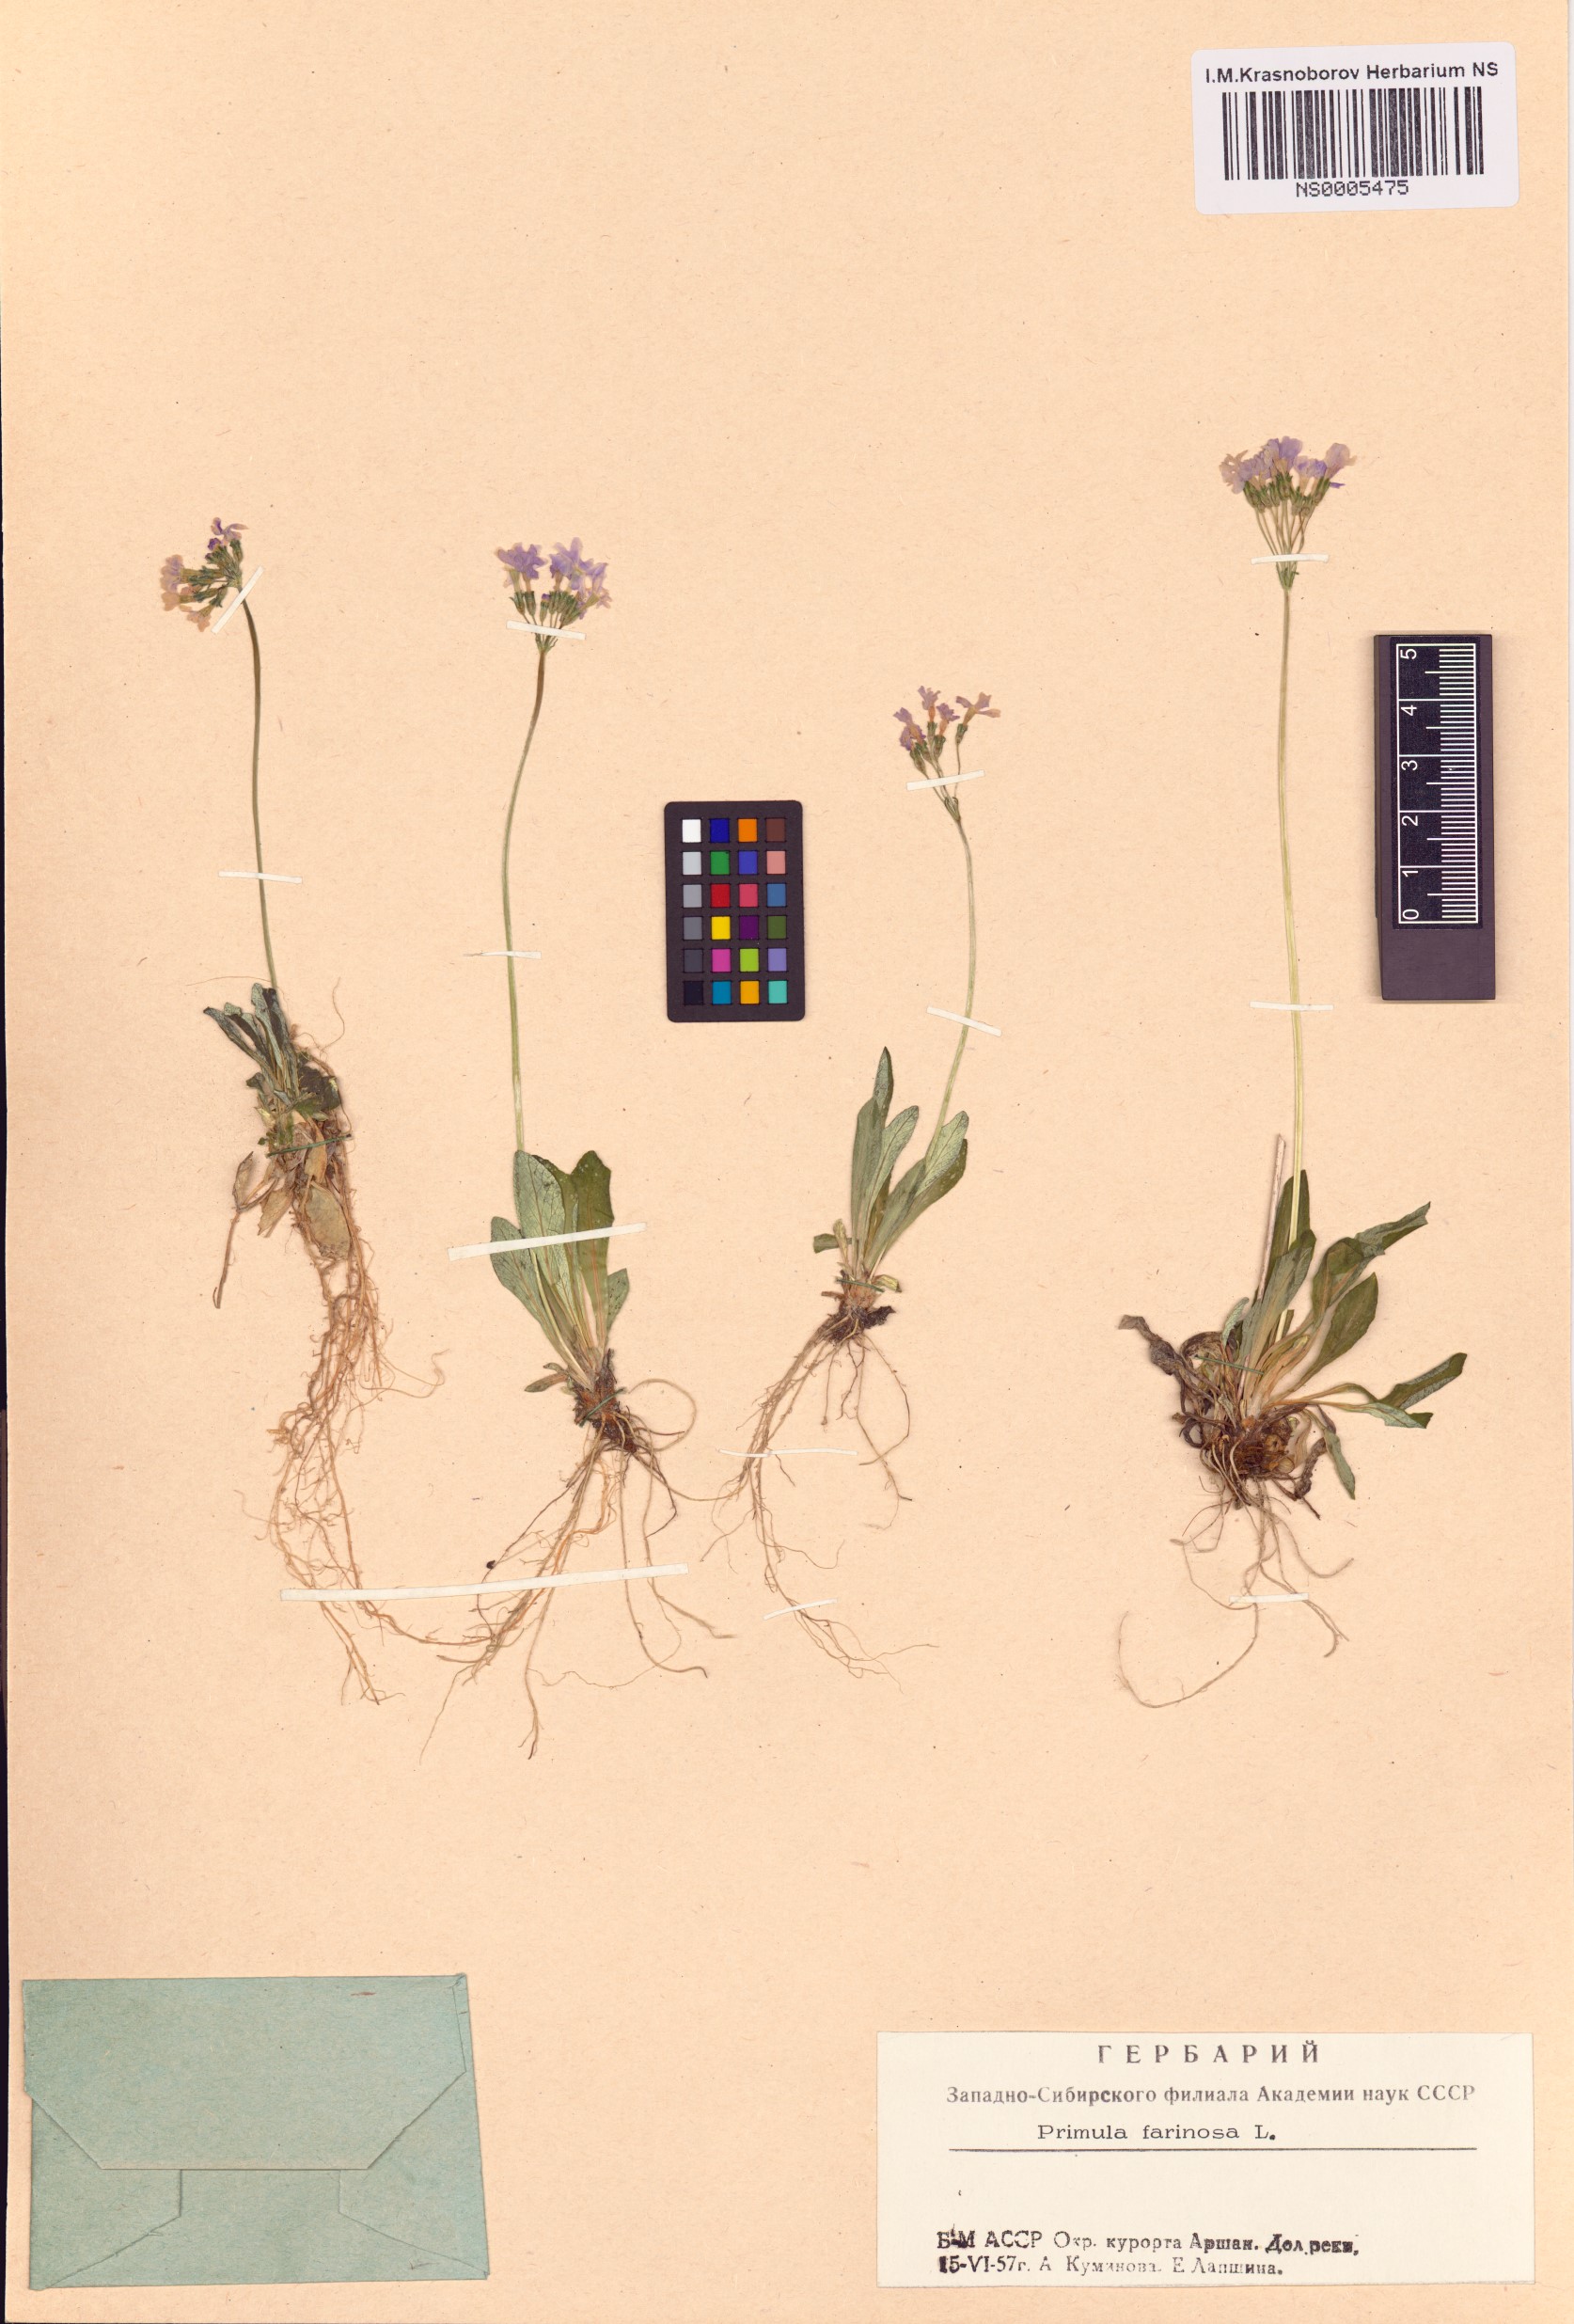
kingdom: Plantae
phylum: Tracheophyta
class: Magnoliopsida
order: Ericales
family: Primulaceae
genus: Primula
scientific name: Primula farinosa
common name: Bird's-eye primrose
